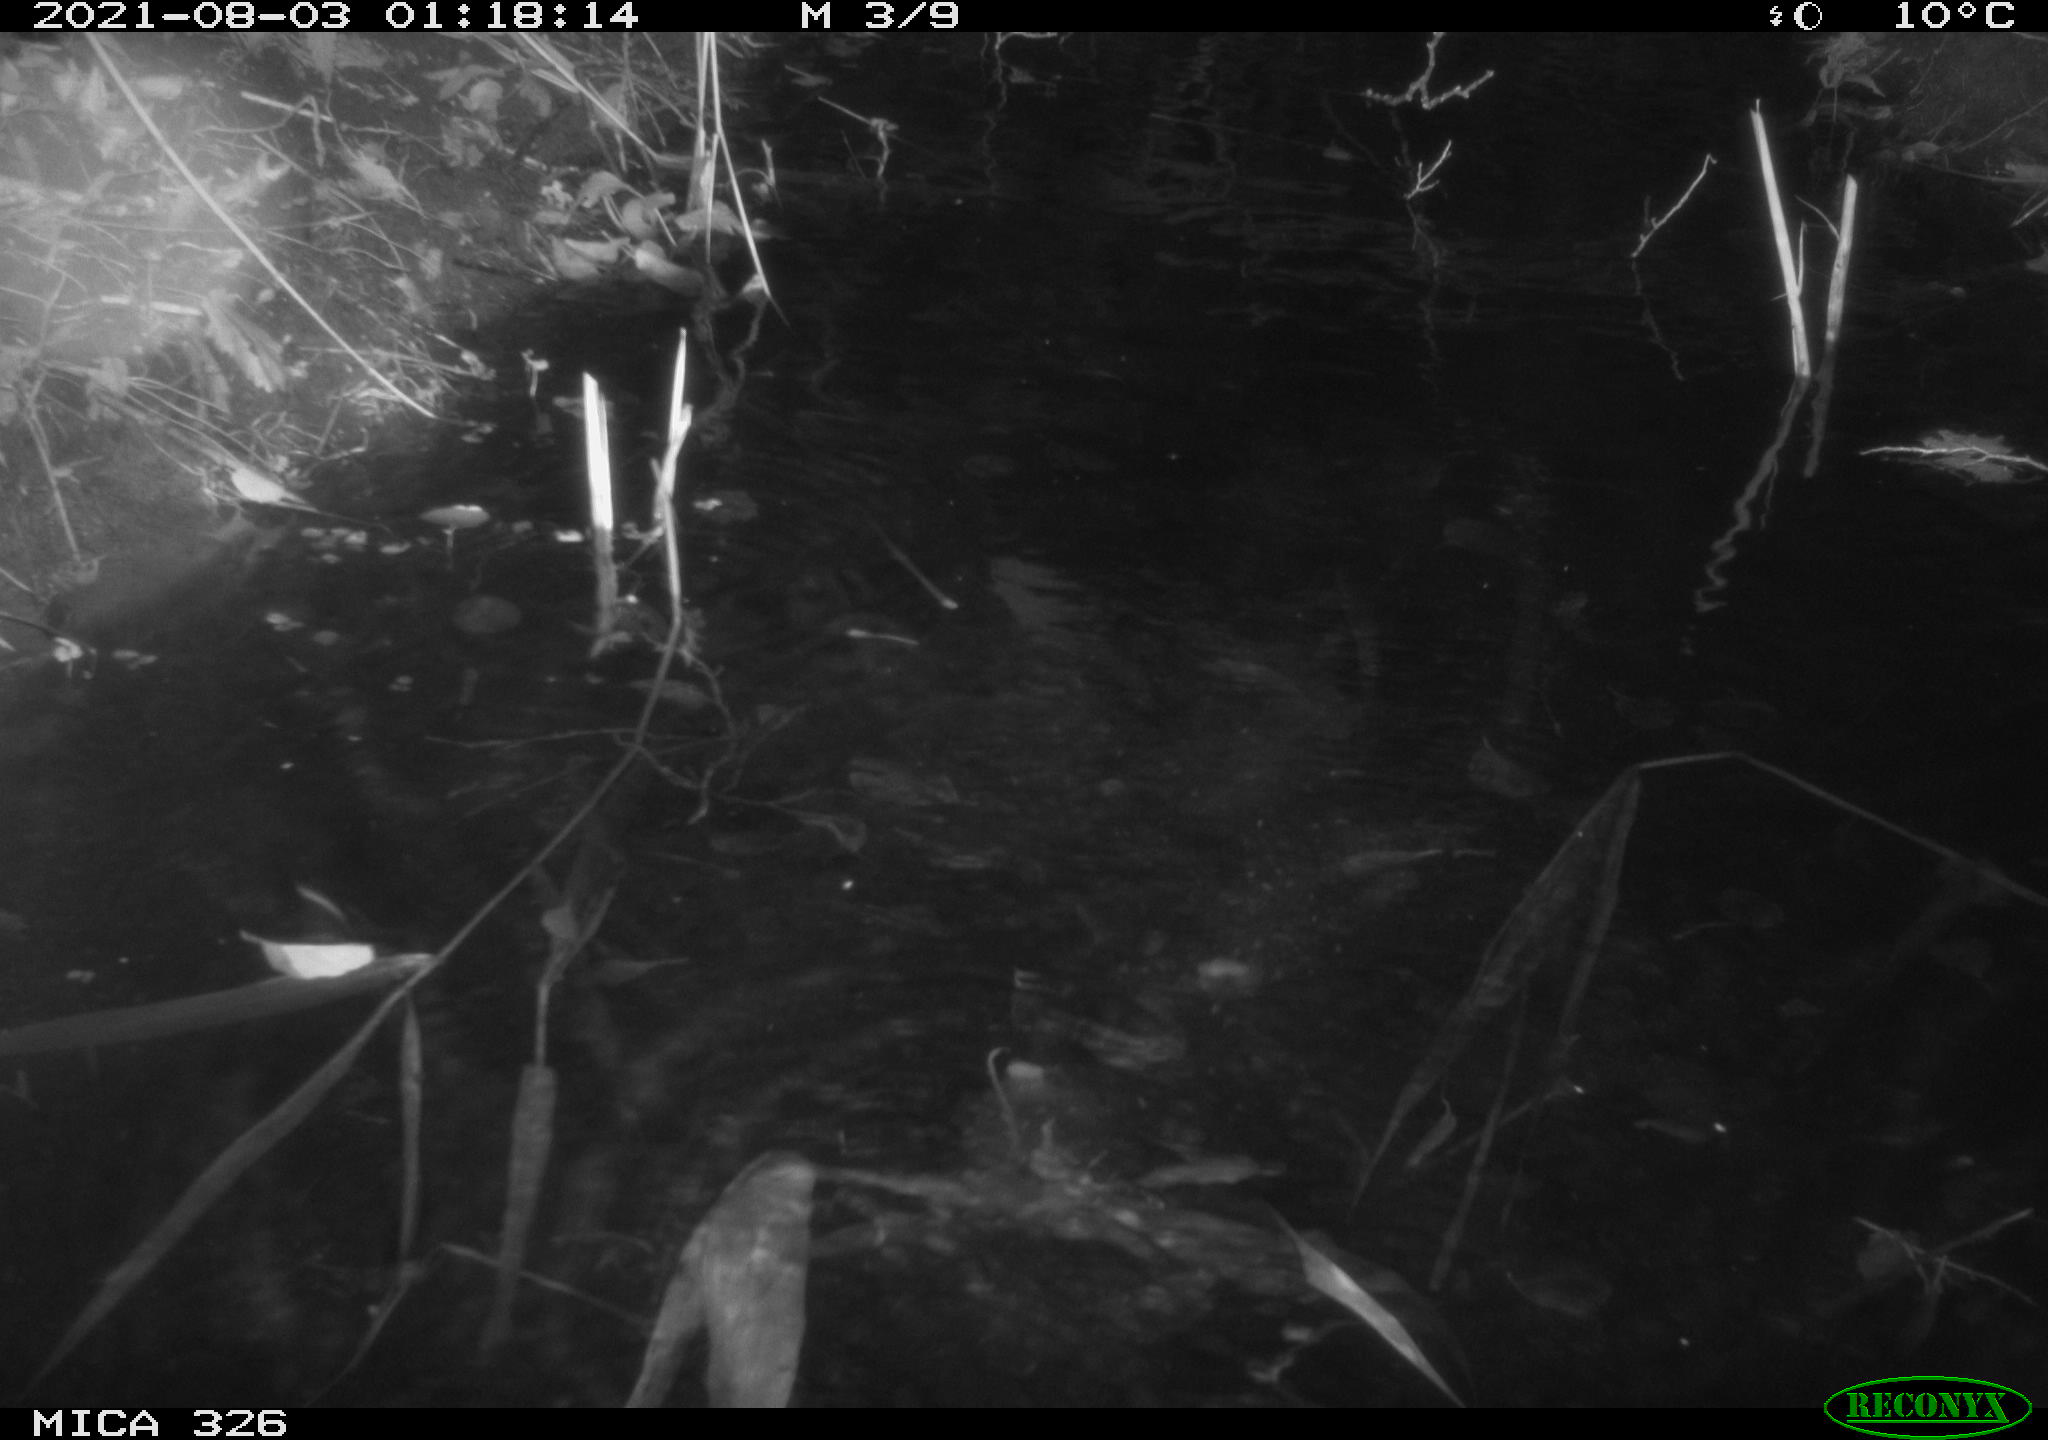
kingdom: Animalia
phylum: Chordata
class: Mammalia
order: Rodentia
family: Cricetidae
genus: Ondatra
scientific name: Ondatra zibethicus
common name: Muskrat
